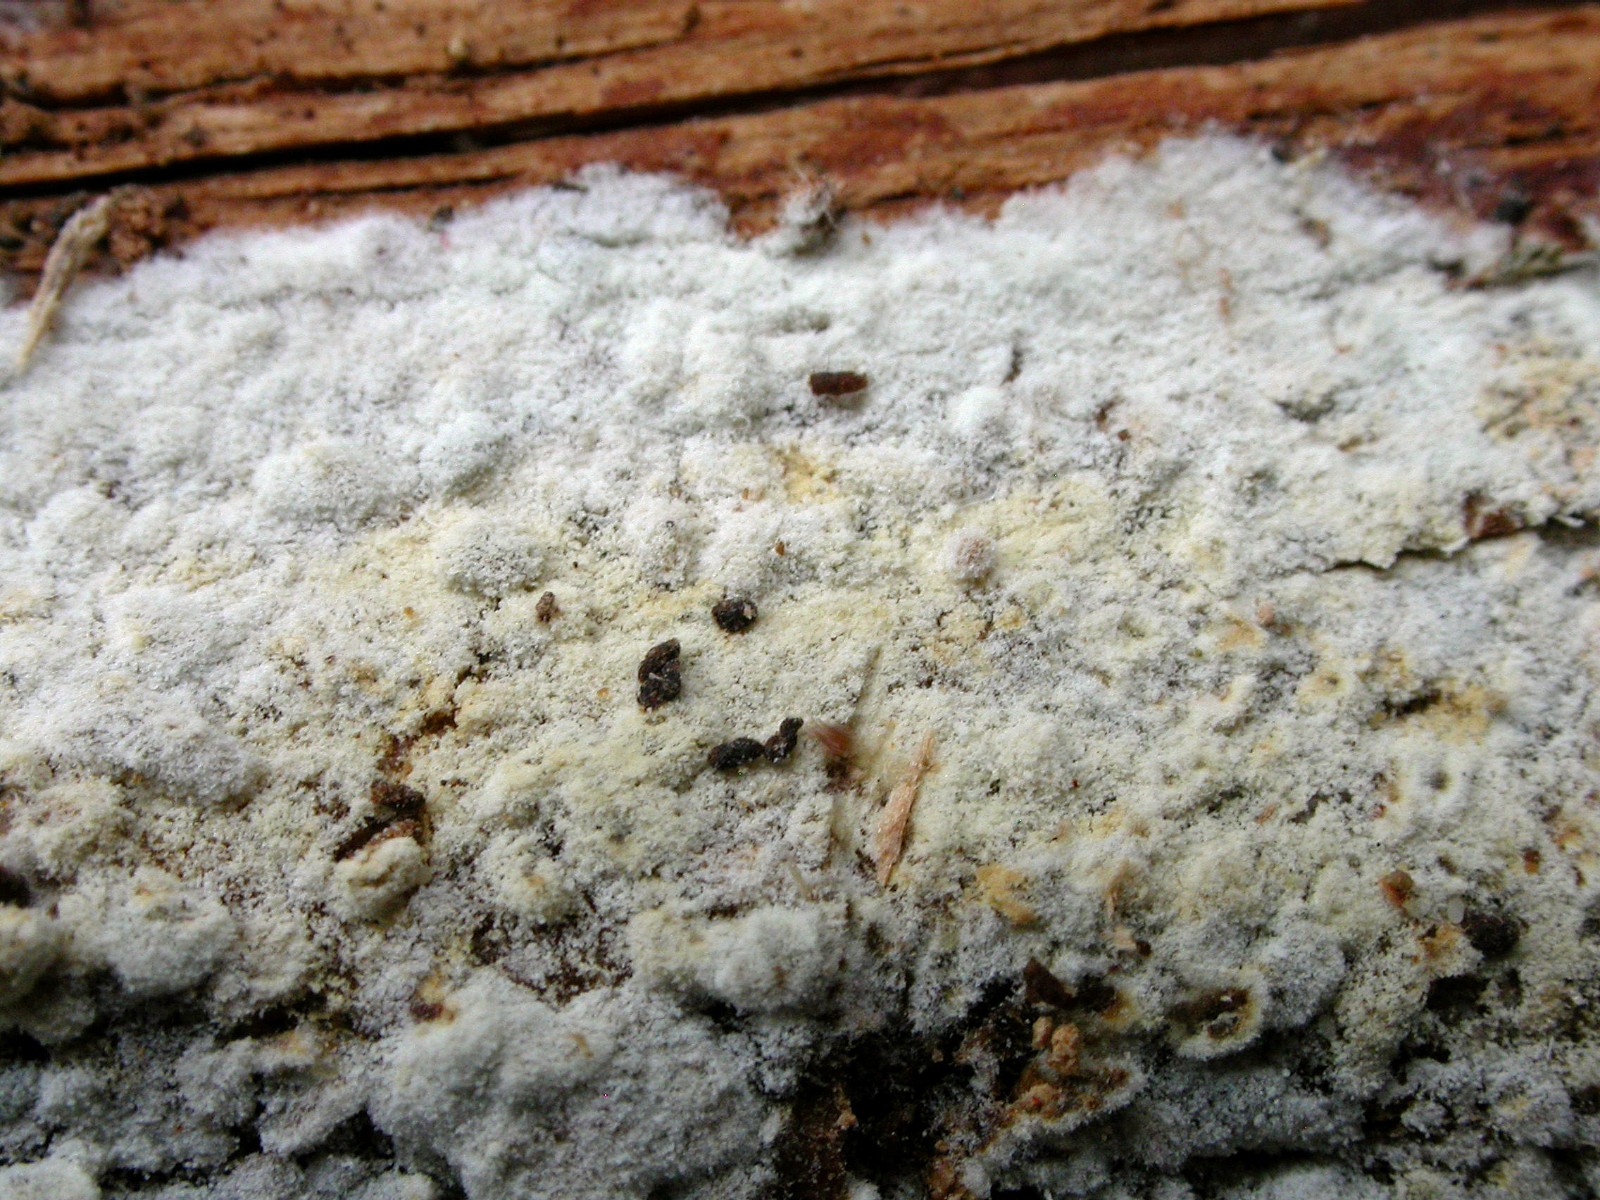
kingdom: Fungi
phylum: Basidiomycota
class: Agaricomycetes
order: Cantharellales
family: Botryobasidiaceae
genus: Botryobasidium
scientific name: Botryobasidium capitatum
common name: kalkhvid spindhinde
